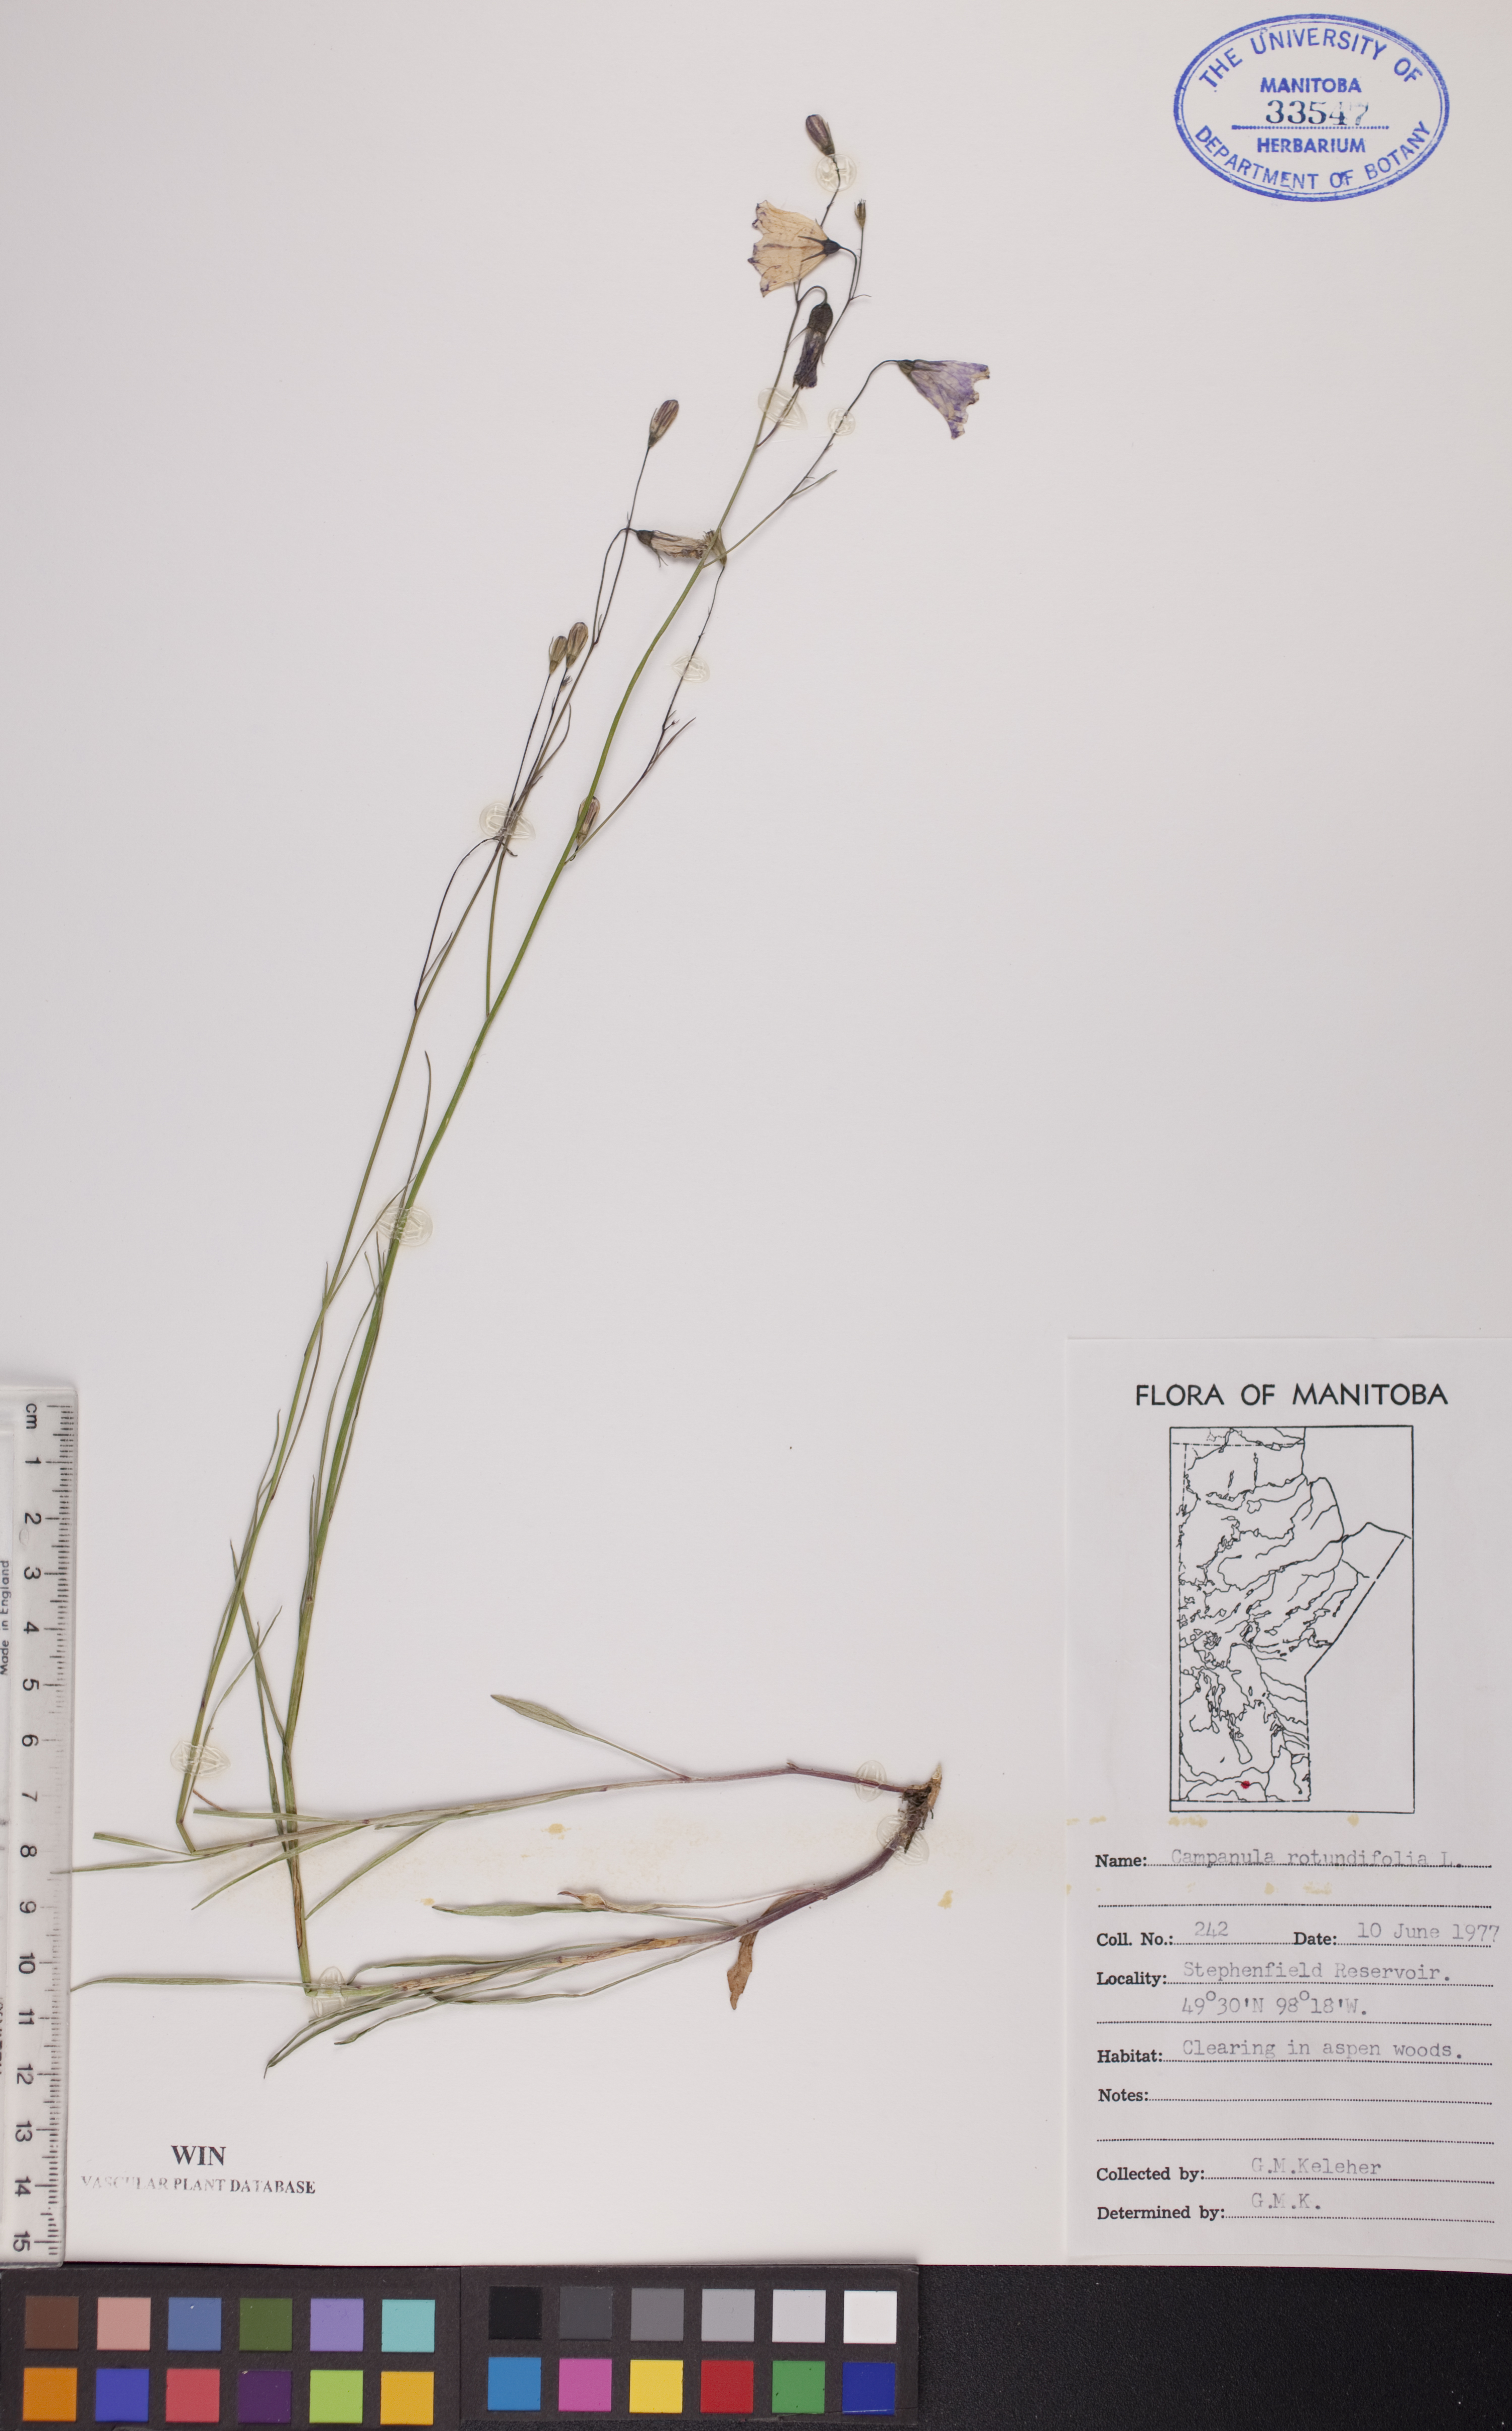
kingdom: Plantae
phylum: Tracheophyta
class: Magnoliopsida
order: Asterales
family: Campanulaceae
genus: Campanula
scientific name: Campanula rotundifolia
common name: Harebell
